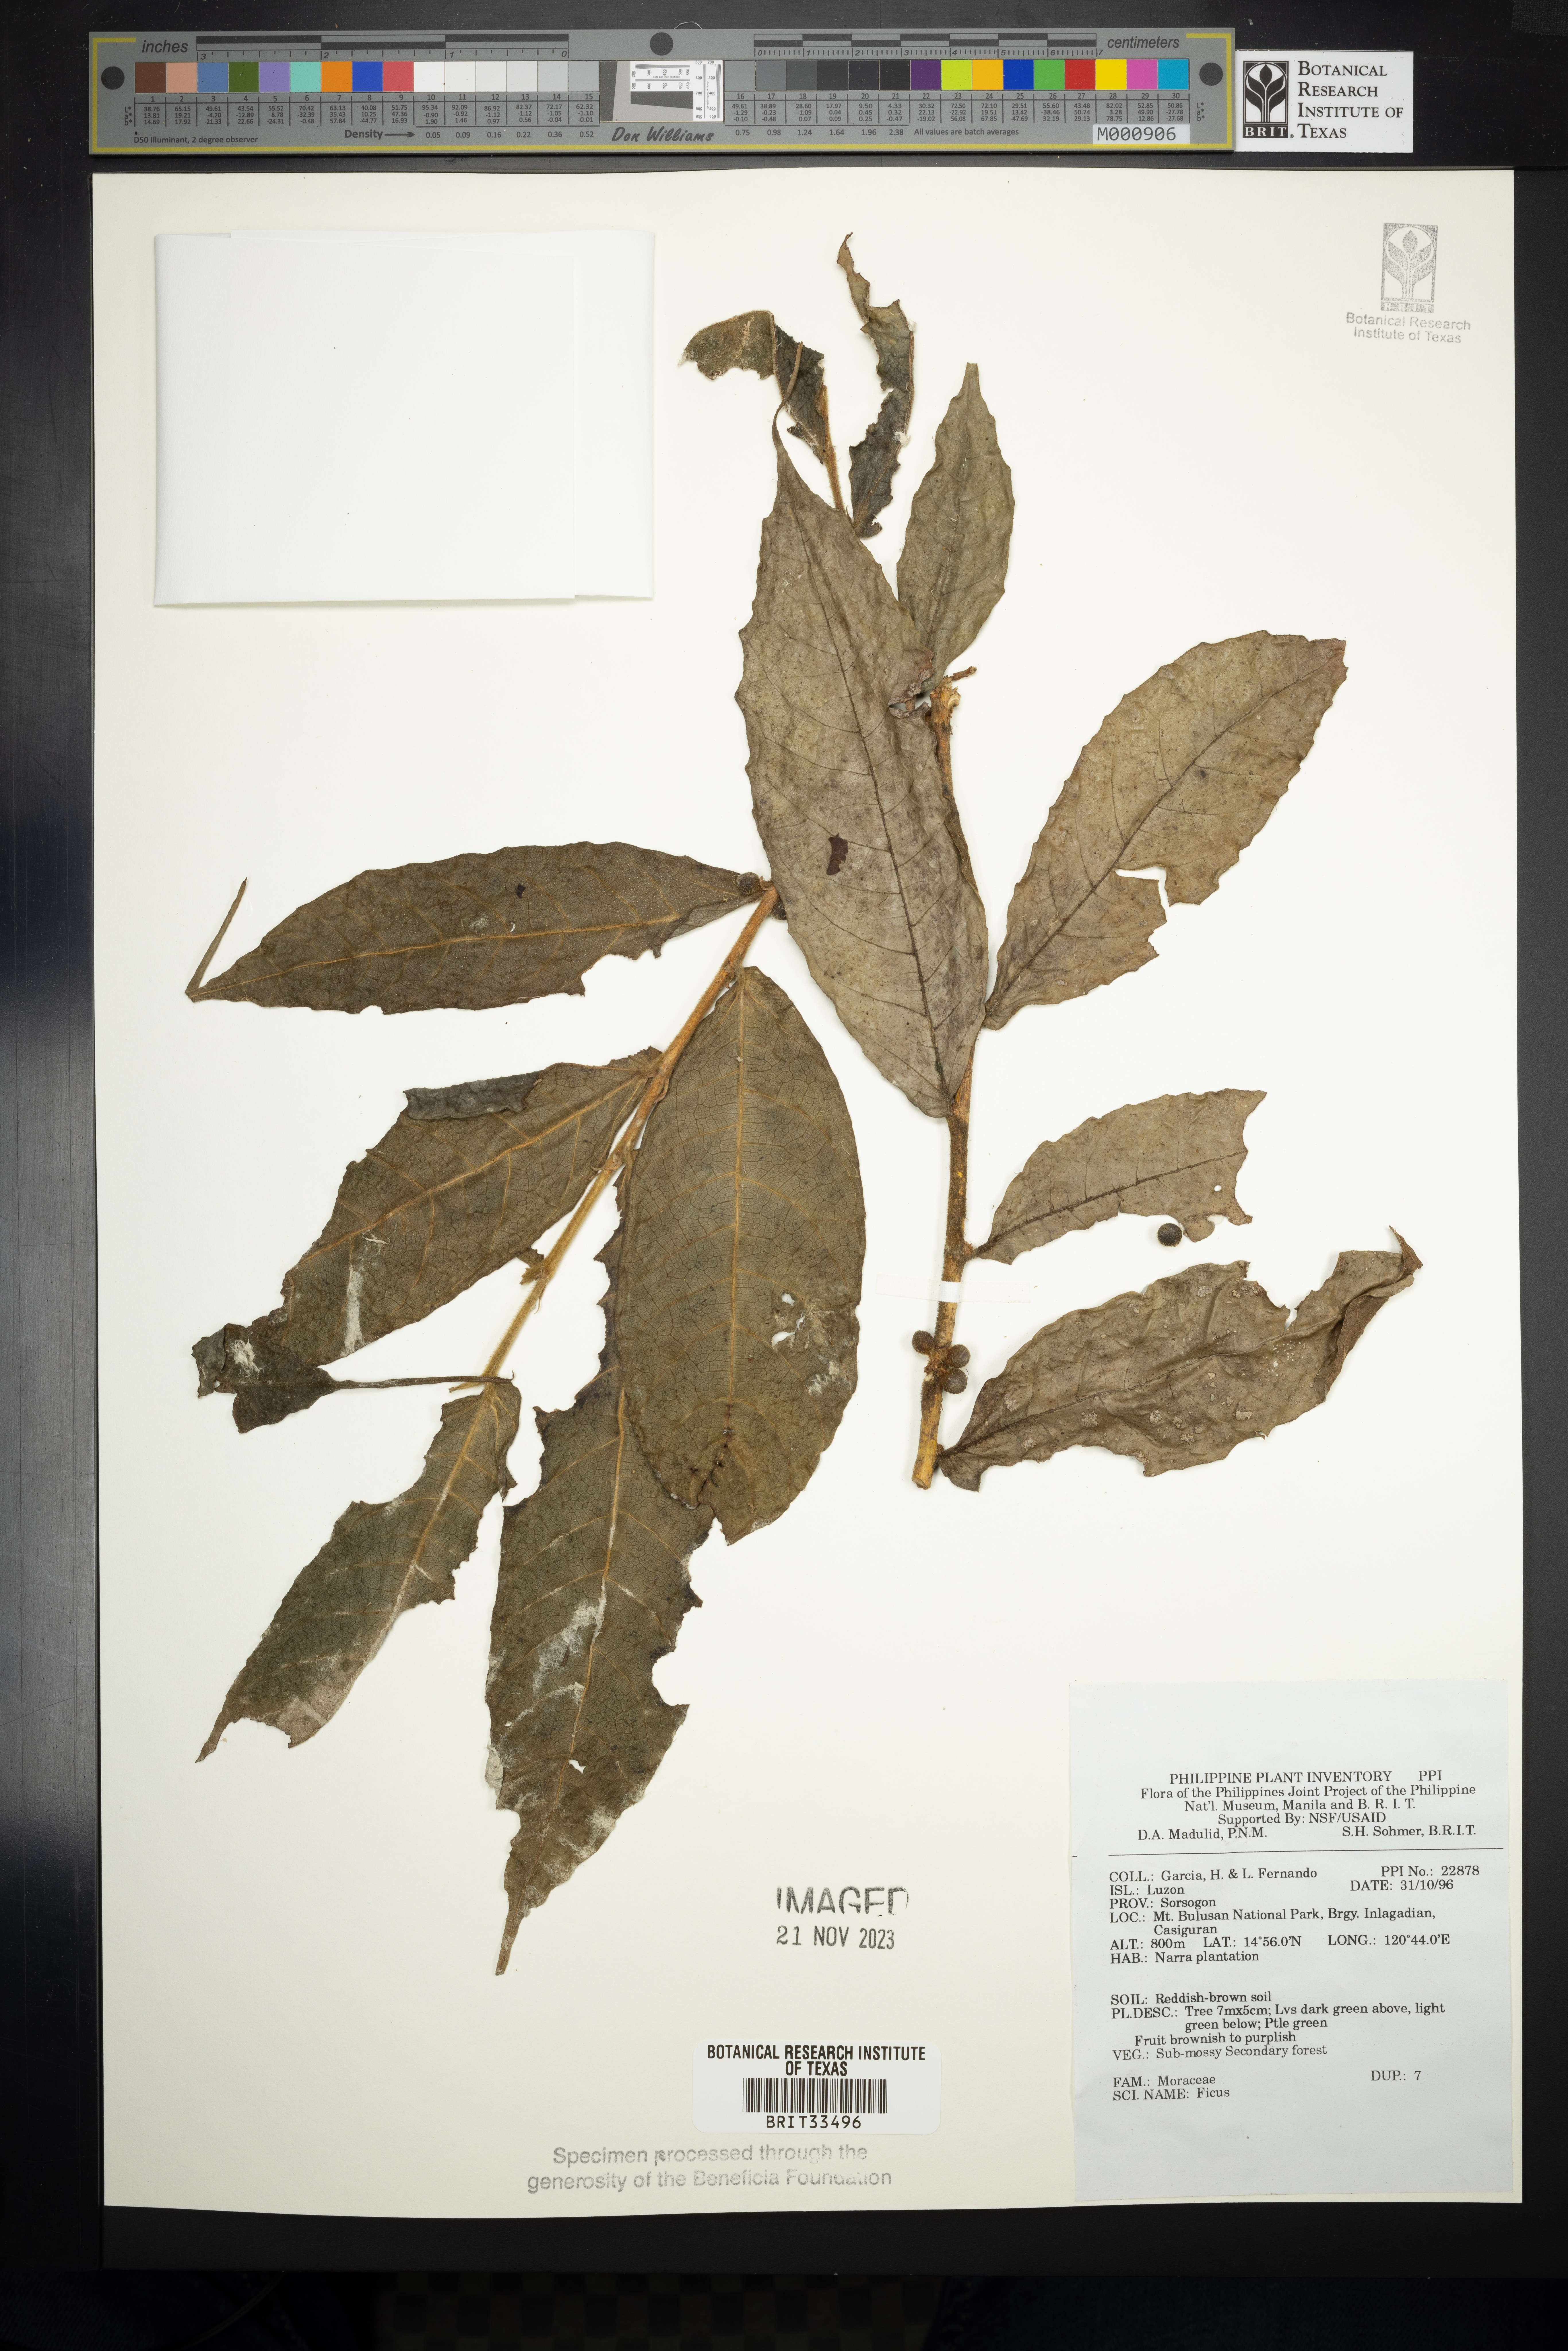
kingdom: Plantae
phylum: Tracheophyta
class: Magnoliopsida
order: Rosales
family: Moraceae
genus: Ficus
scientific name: Ficus
